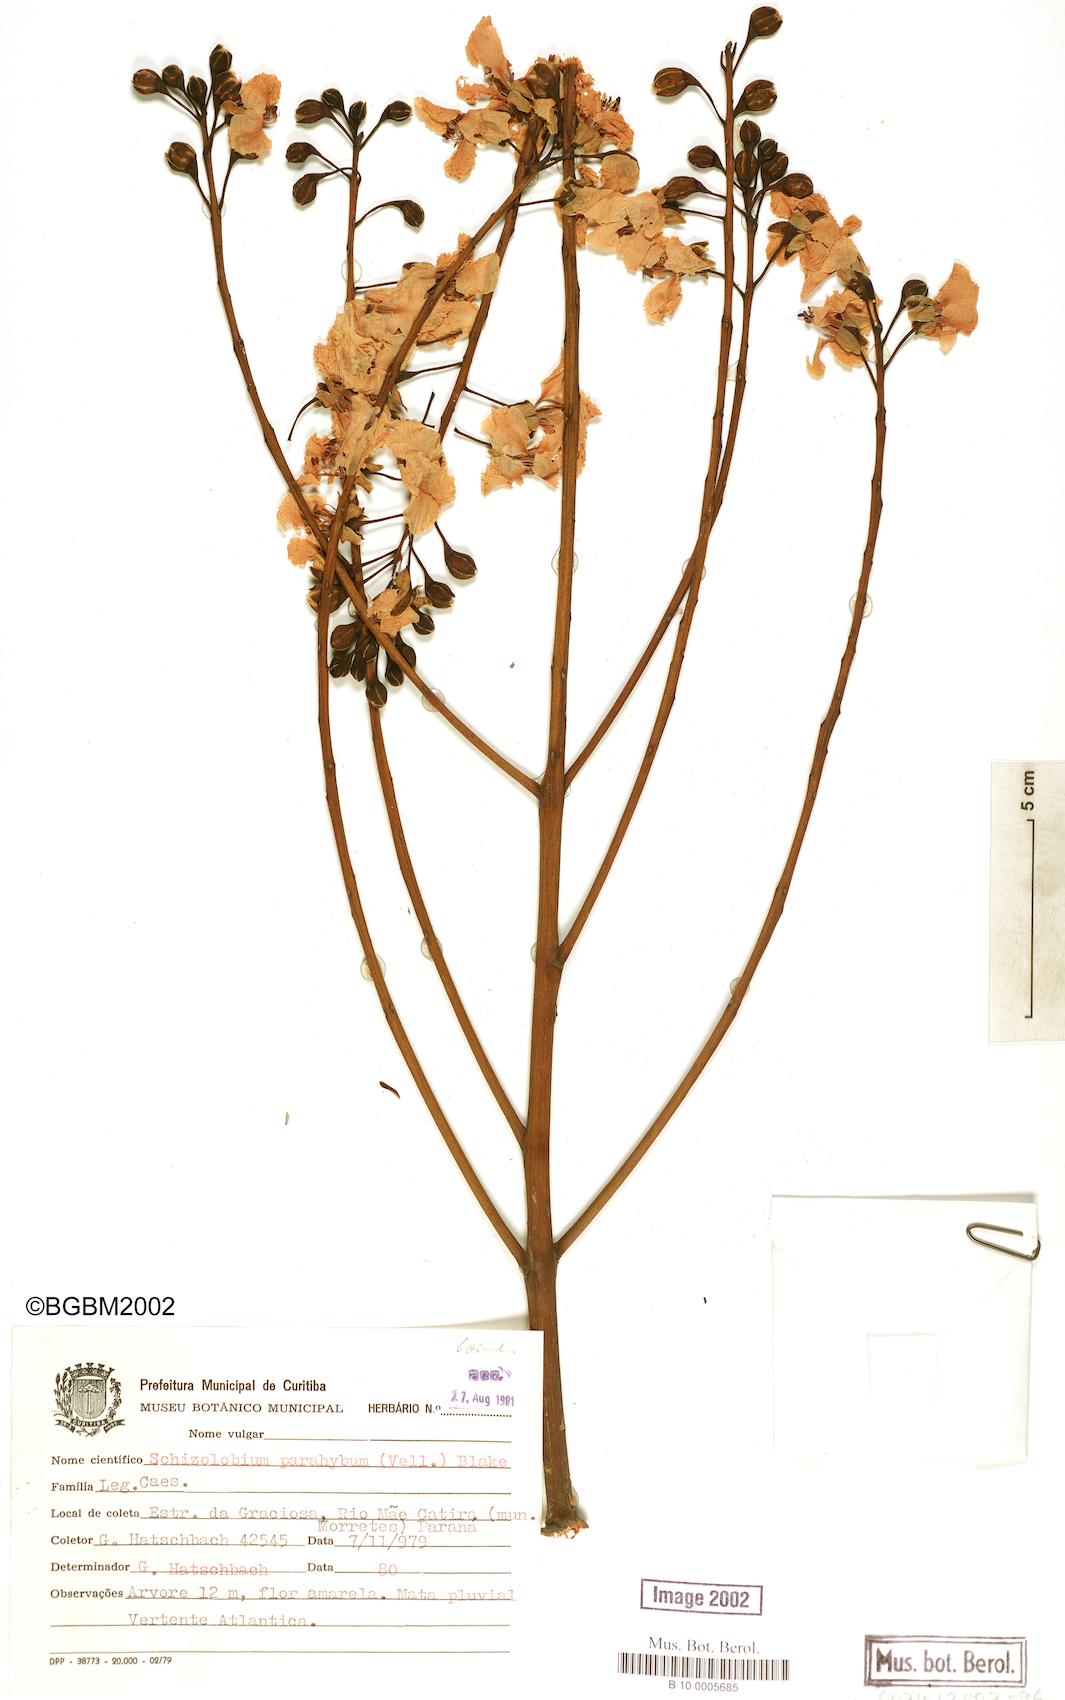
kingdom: Plantae
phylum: Tracheophyta
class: Magnoliopsida
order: Fabales
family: Fabaceae
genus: Schizolobium
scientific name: Schizolobium parahyba
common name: Brazilian firetree
